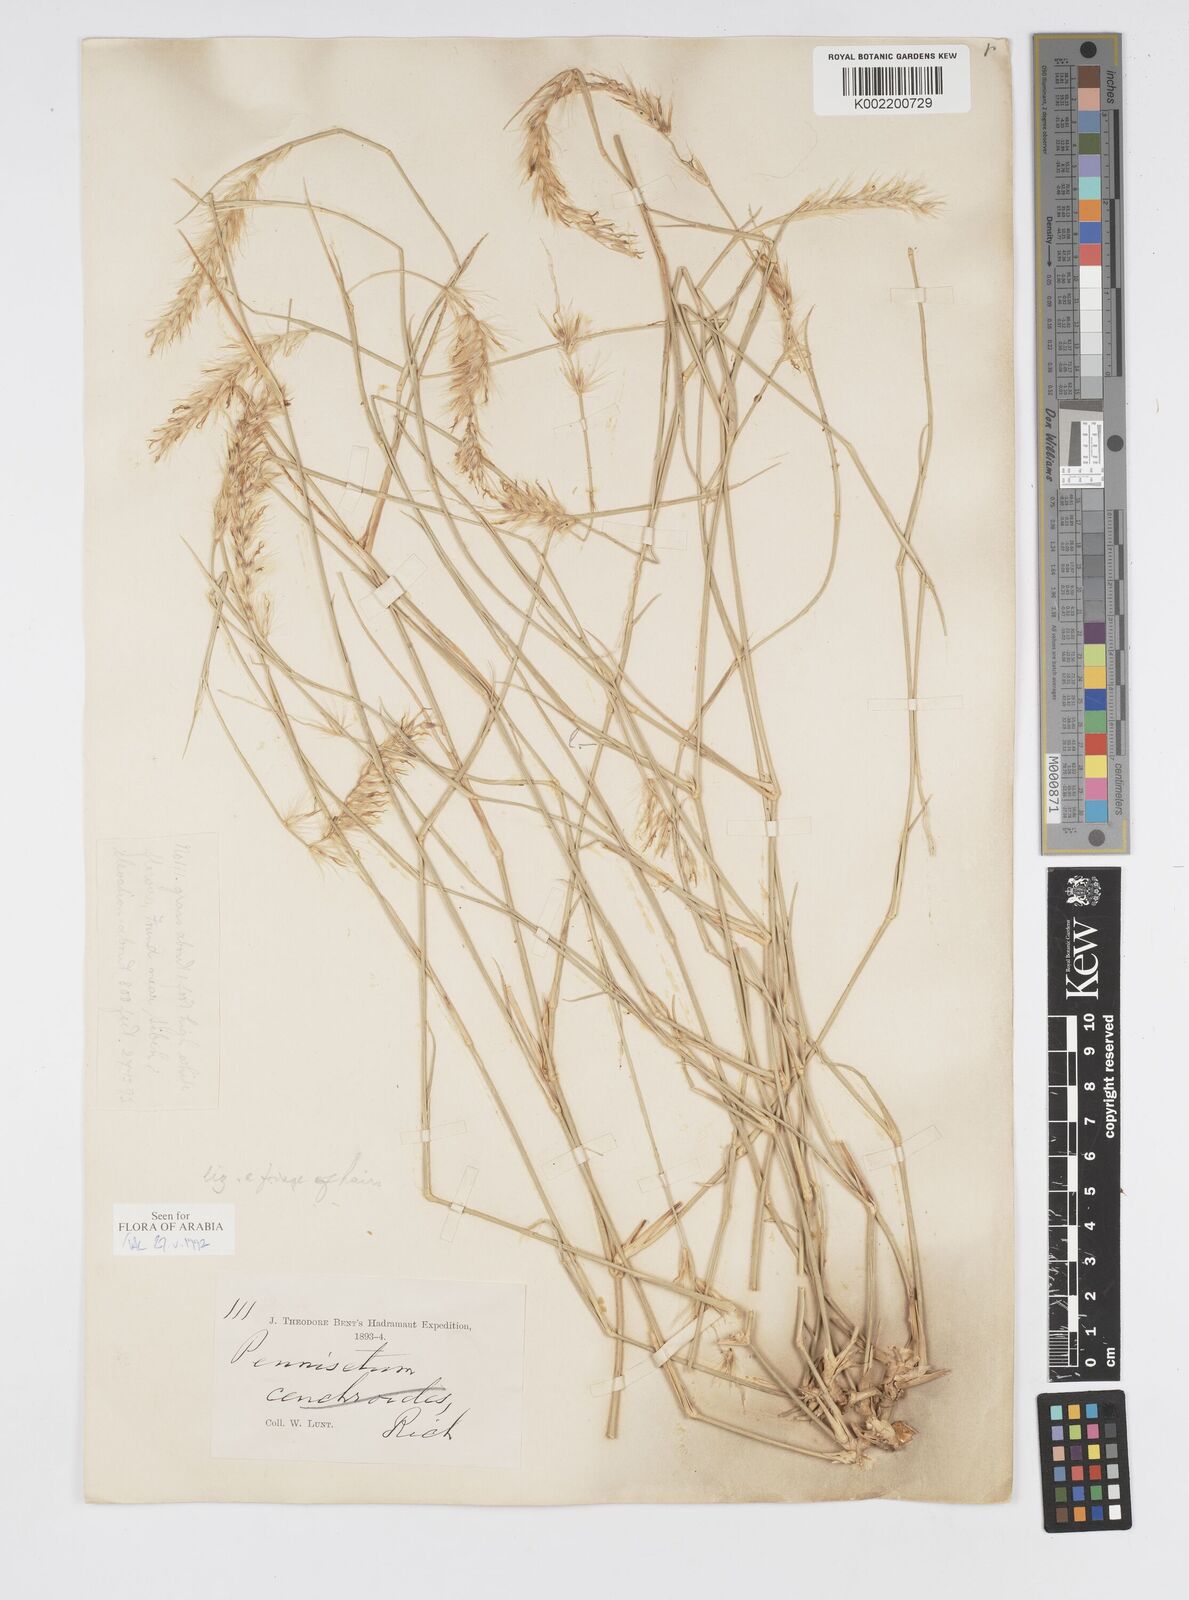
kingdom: Plantae
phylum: Tracheophyta
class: Liliopsida
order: Poales
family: Poaceae
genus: Cenchrus
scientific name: Cenchrus divisus
